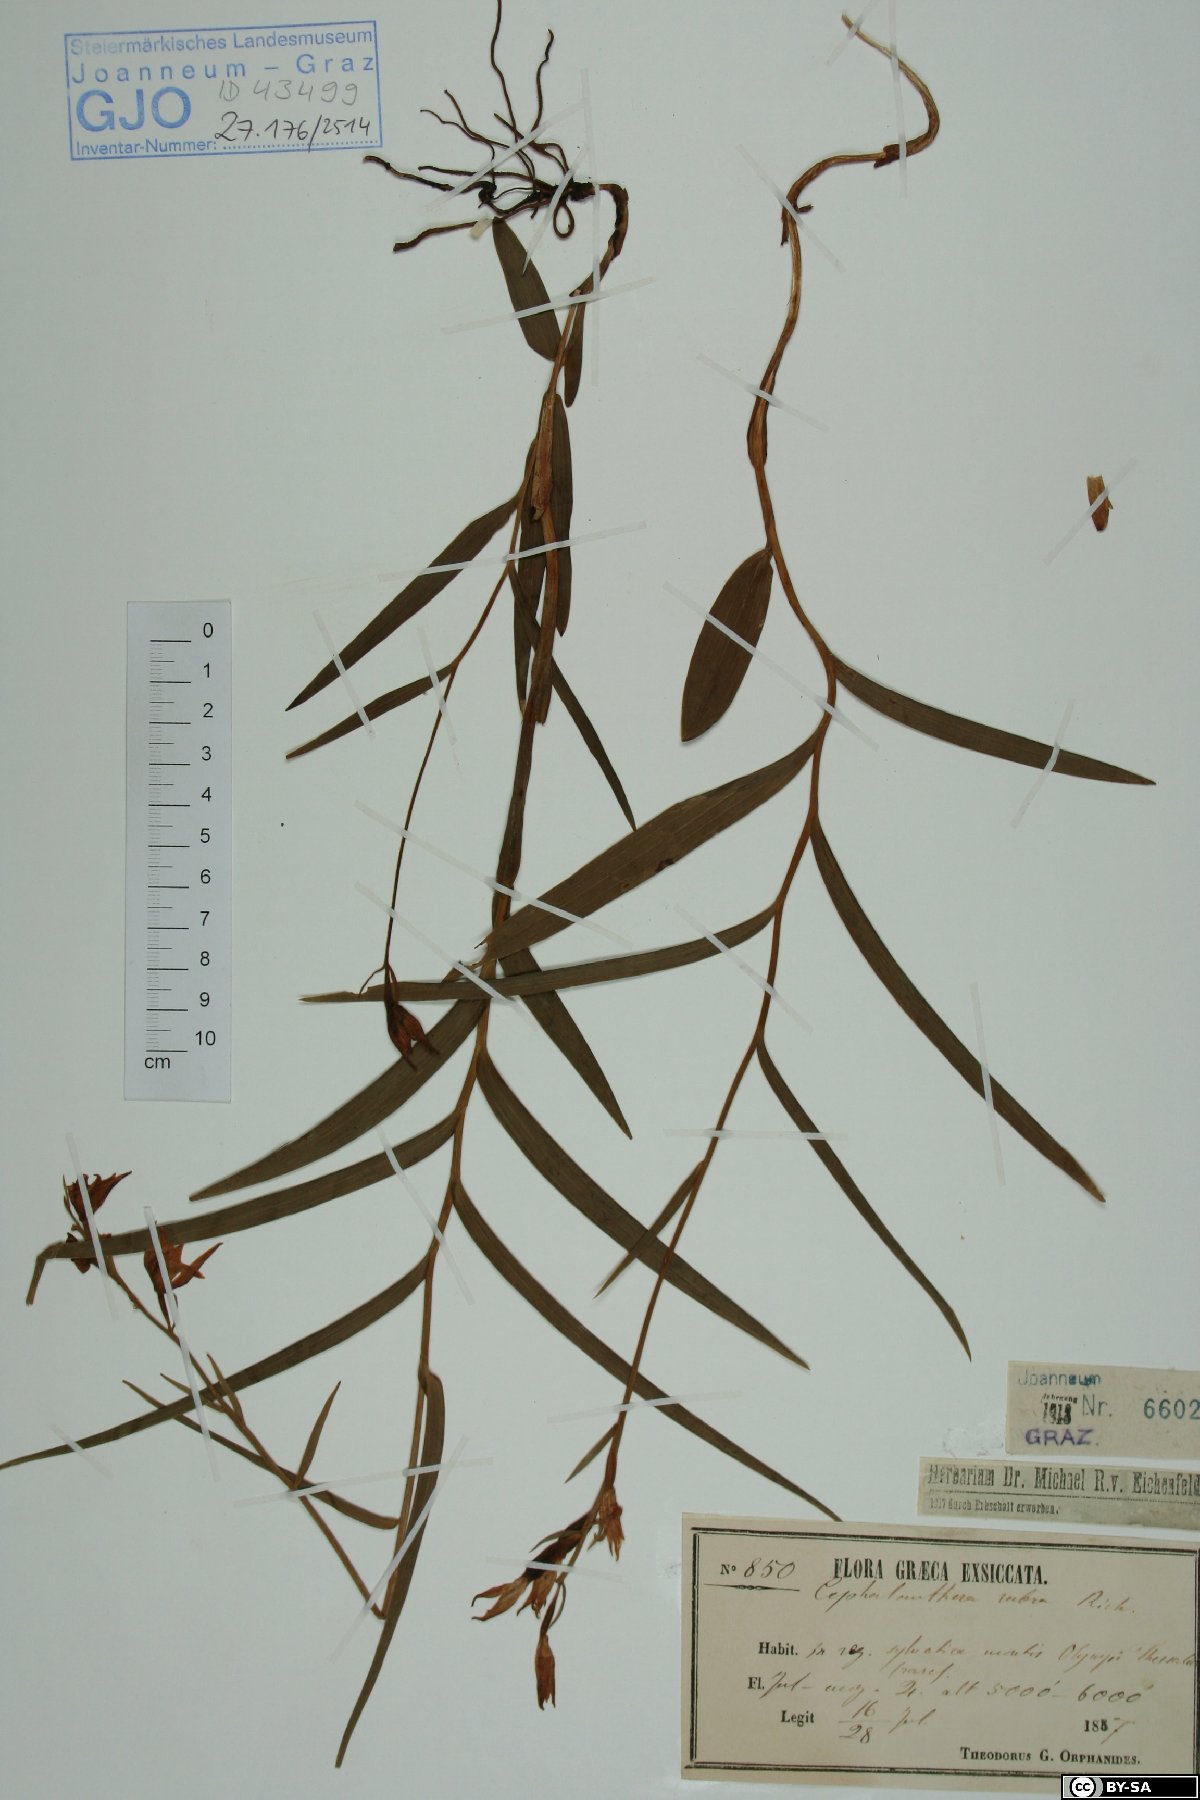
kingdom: Plantae
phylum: Tracheophyta
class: Liliopsida
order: Asparagales
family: Orchidaceae
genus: Cephalanthera
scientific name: Cephalanthera rubra
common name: Red helleborine
